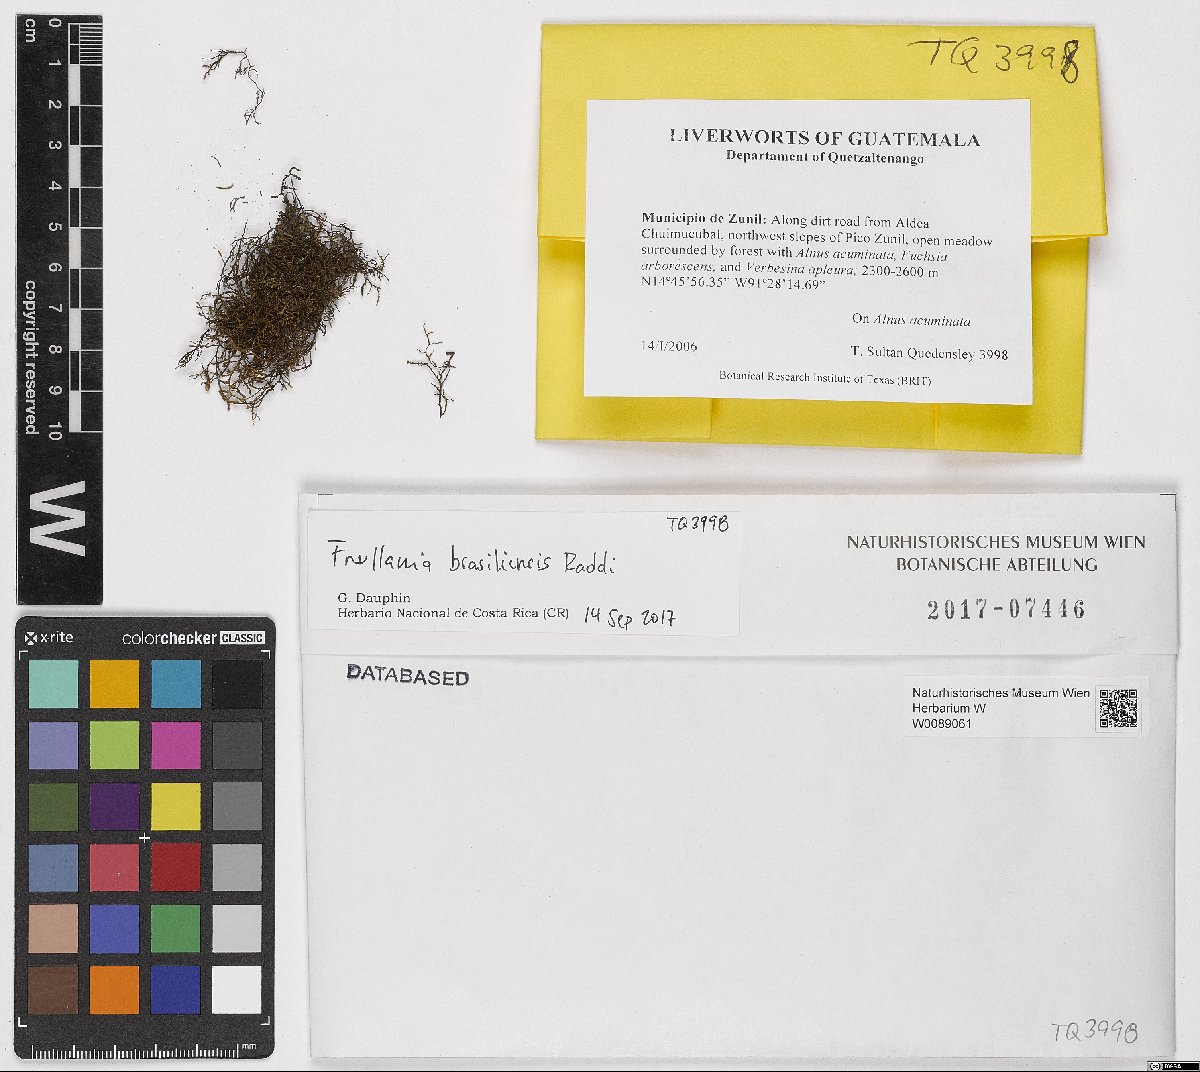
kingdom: Plantae
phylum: Marchantiophyta
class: Jungermanniopsida
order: Porellales
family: Frullaniaceae
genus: Frullania
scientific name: Frullania brasiliensis
